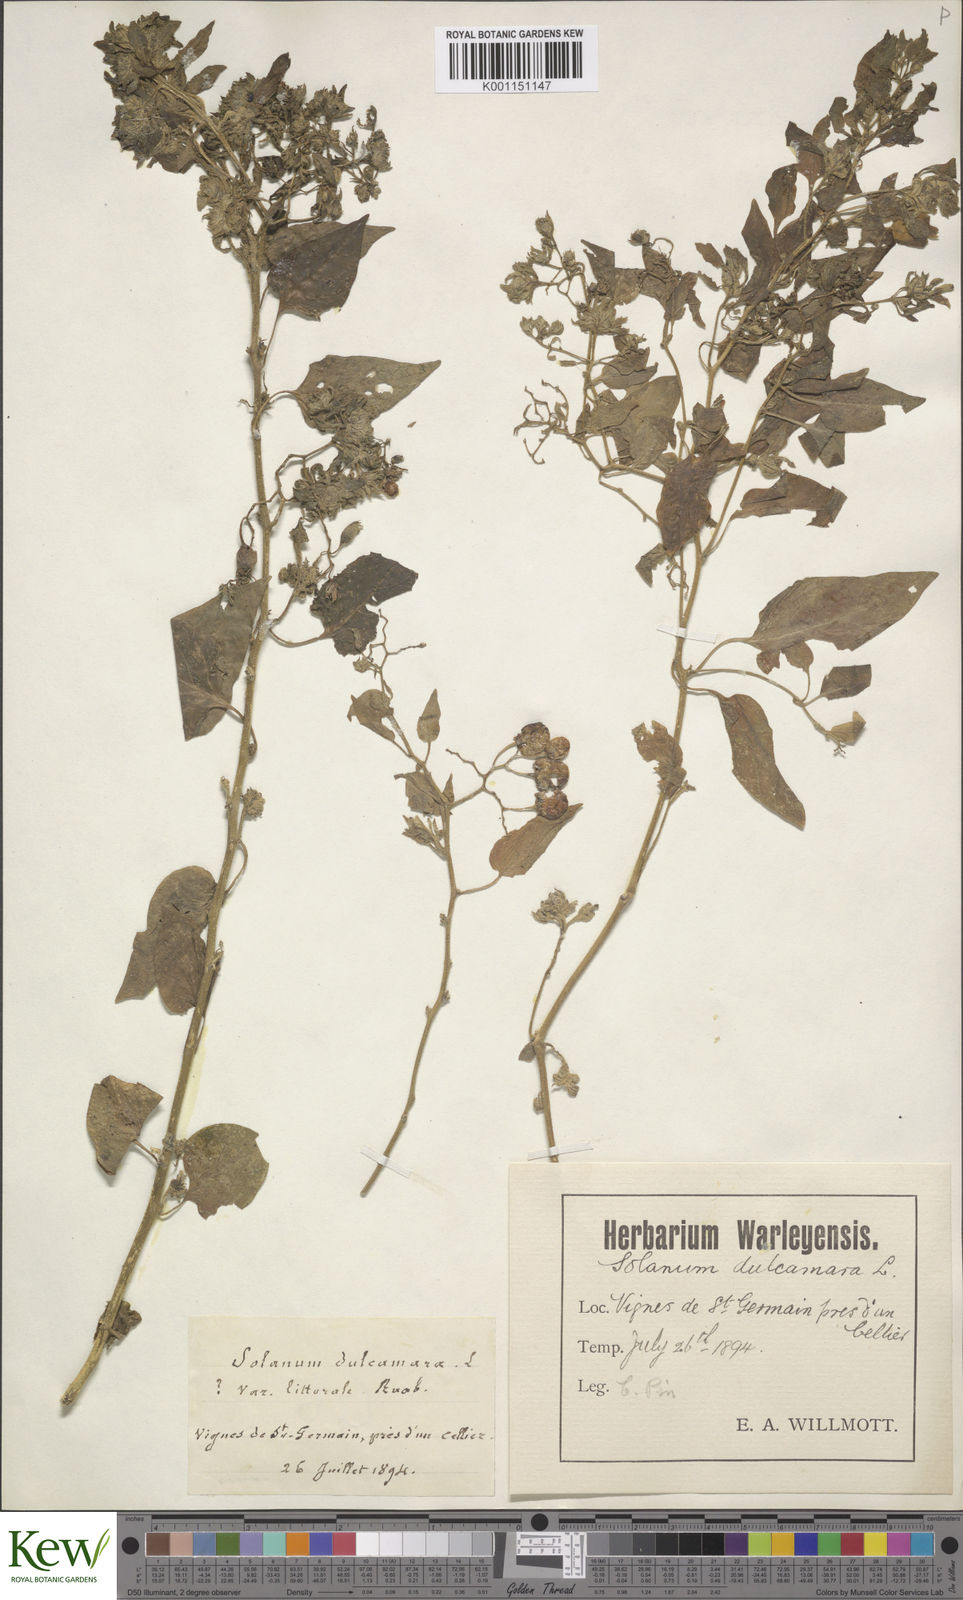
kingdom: Plantae
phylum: Tracheophyta
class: Magnoliopsida
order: Solanales
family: Solanaceae
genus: Solanum
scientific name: Solanum dulcamara
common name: Climbing nightshade
